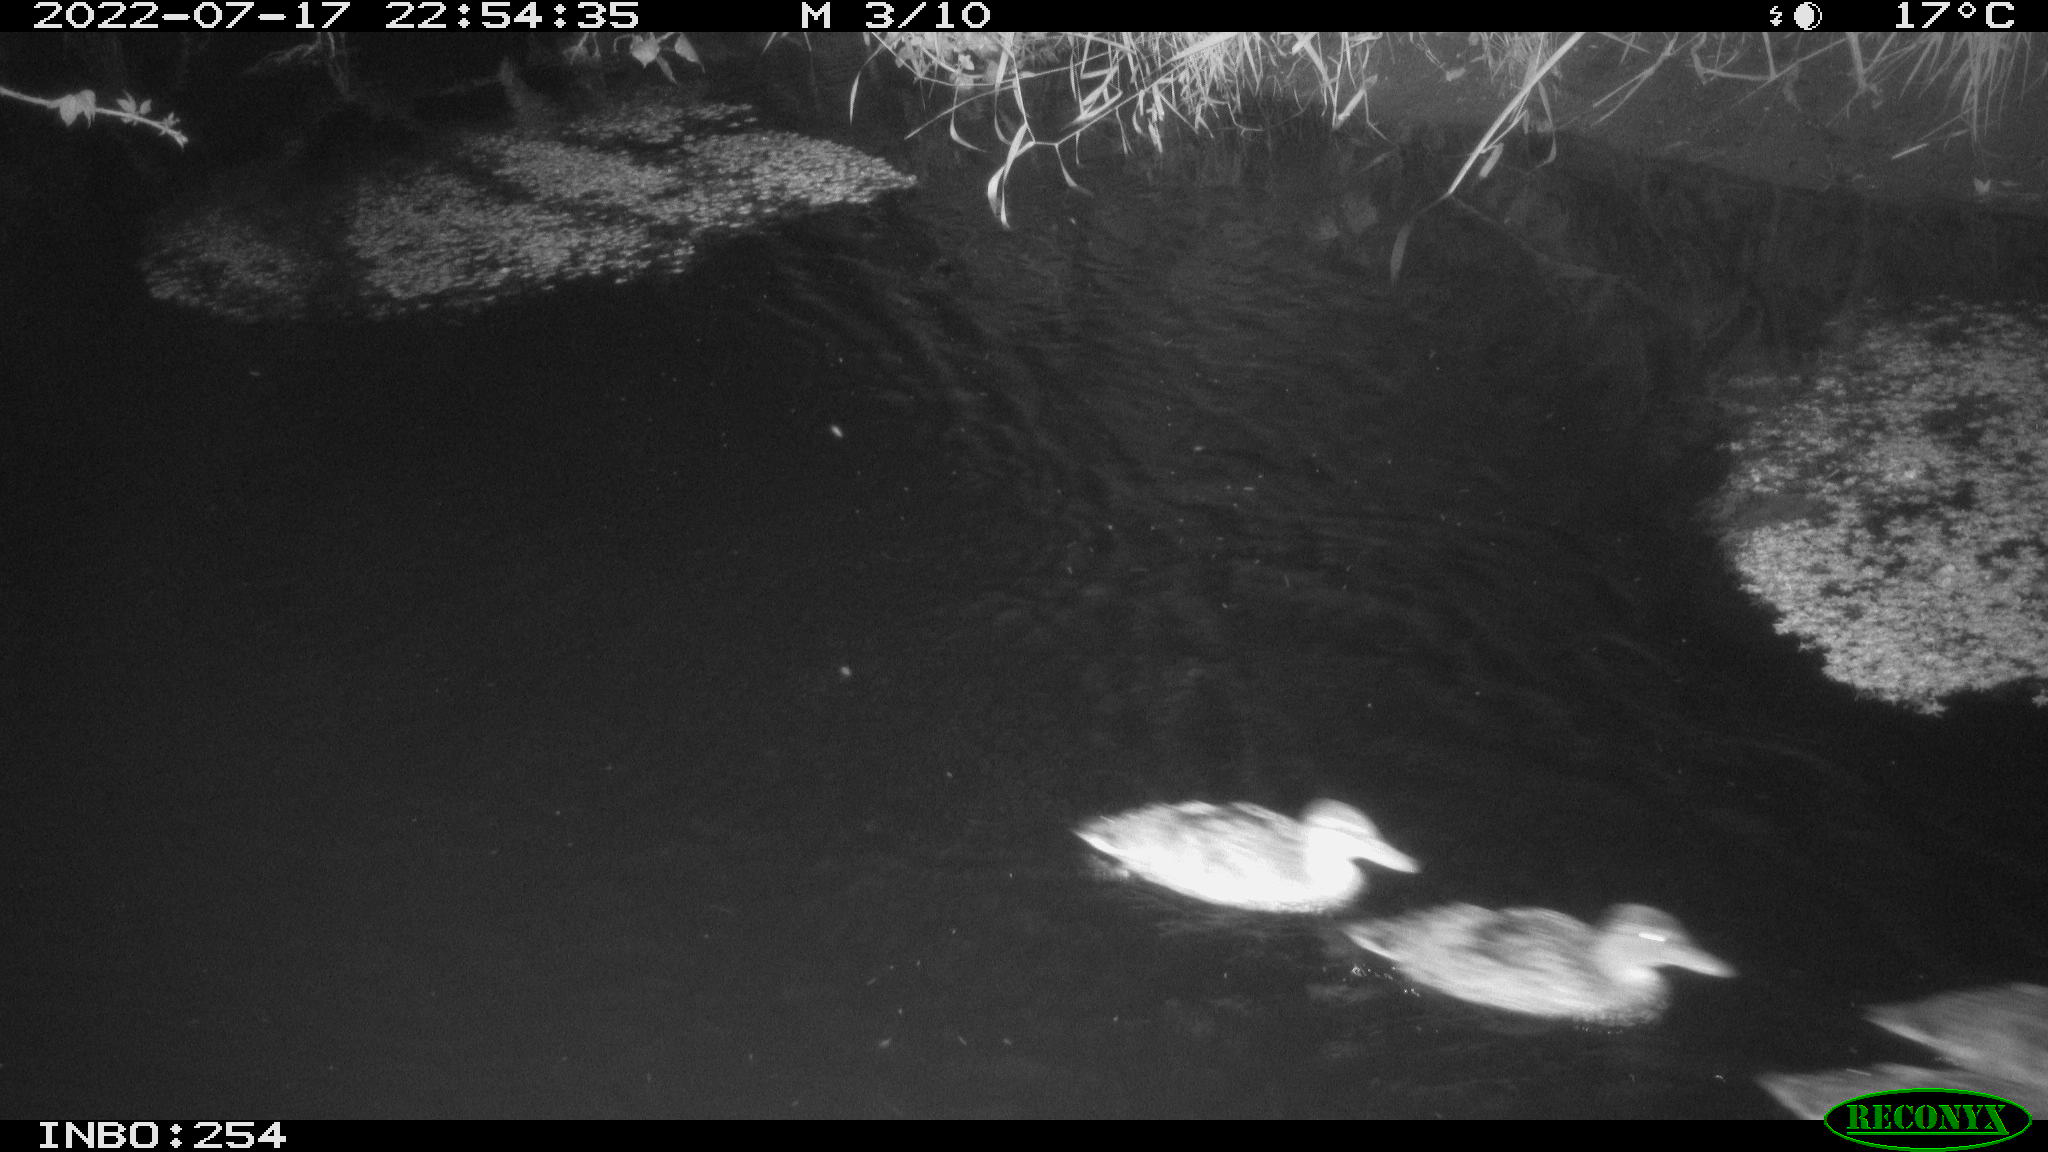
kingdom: Animalia
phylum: Chordata
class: Aves
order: Anseriformes
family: Anatidae
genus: Anas
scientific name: Anas platyrhynchos
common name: Mallard
